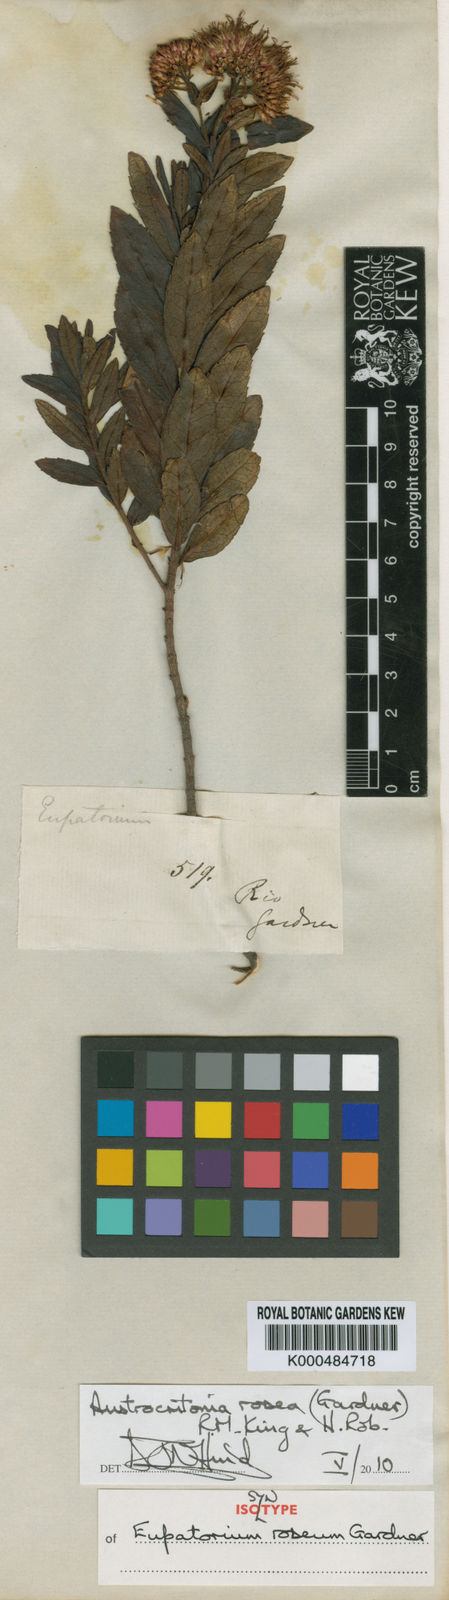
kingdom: Plantae
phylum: Tracheophyta
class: Magnoliopsida
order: Asterales
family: Asteraceae
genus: Austrocritonia
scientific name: Austrocritonia rosea
